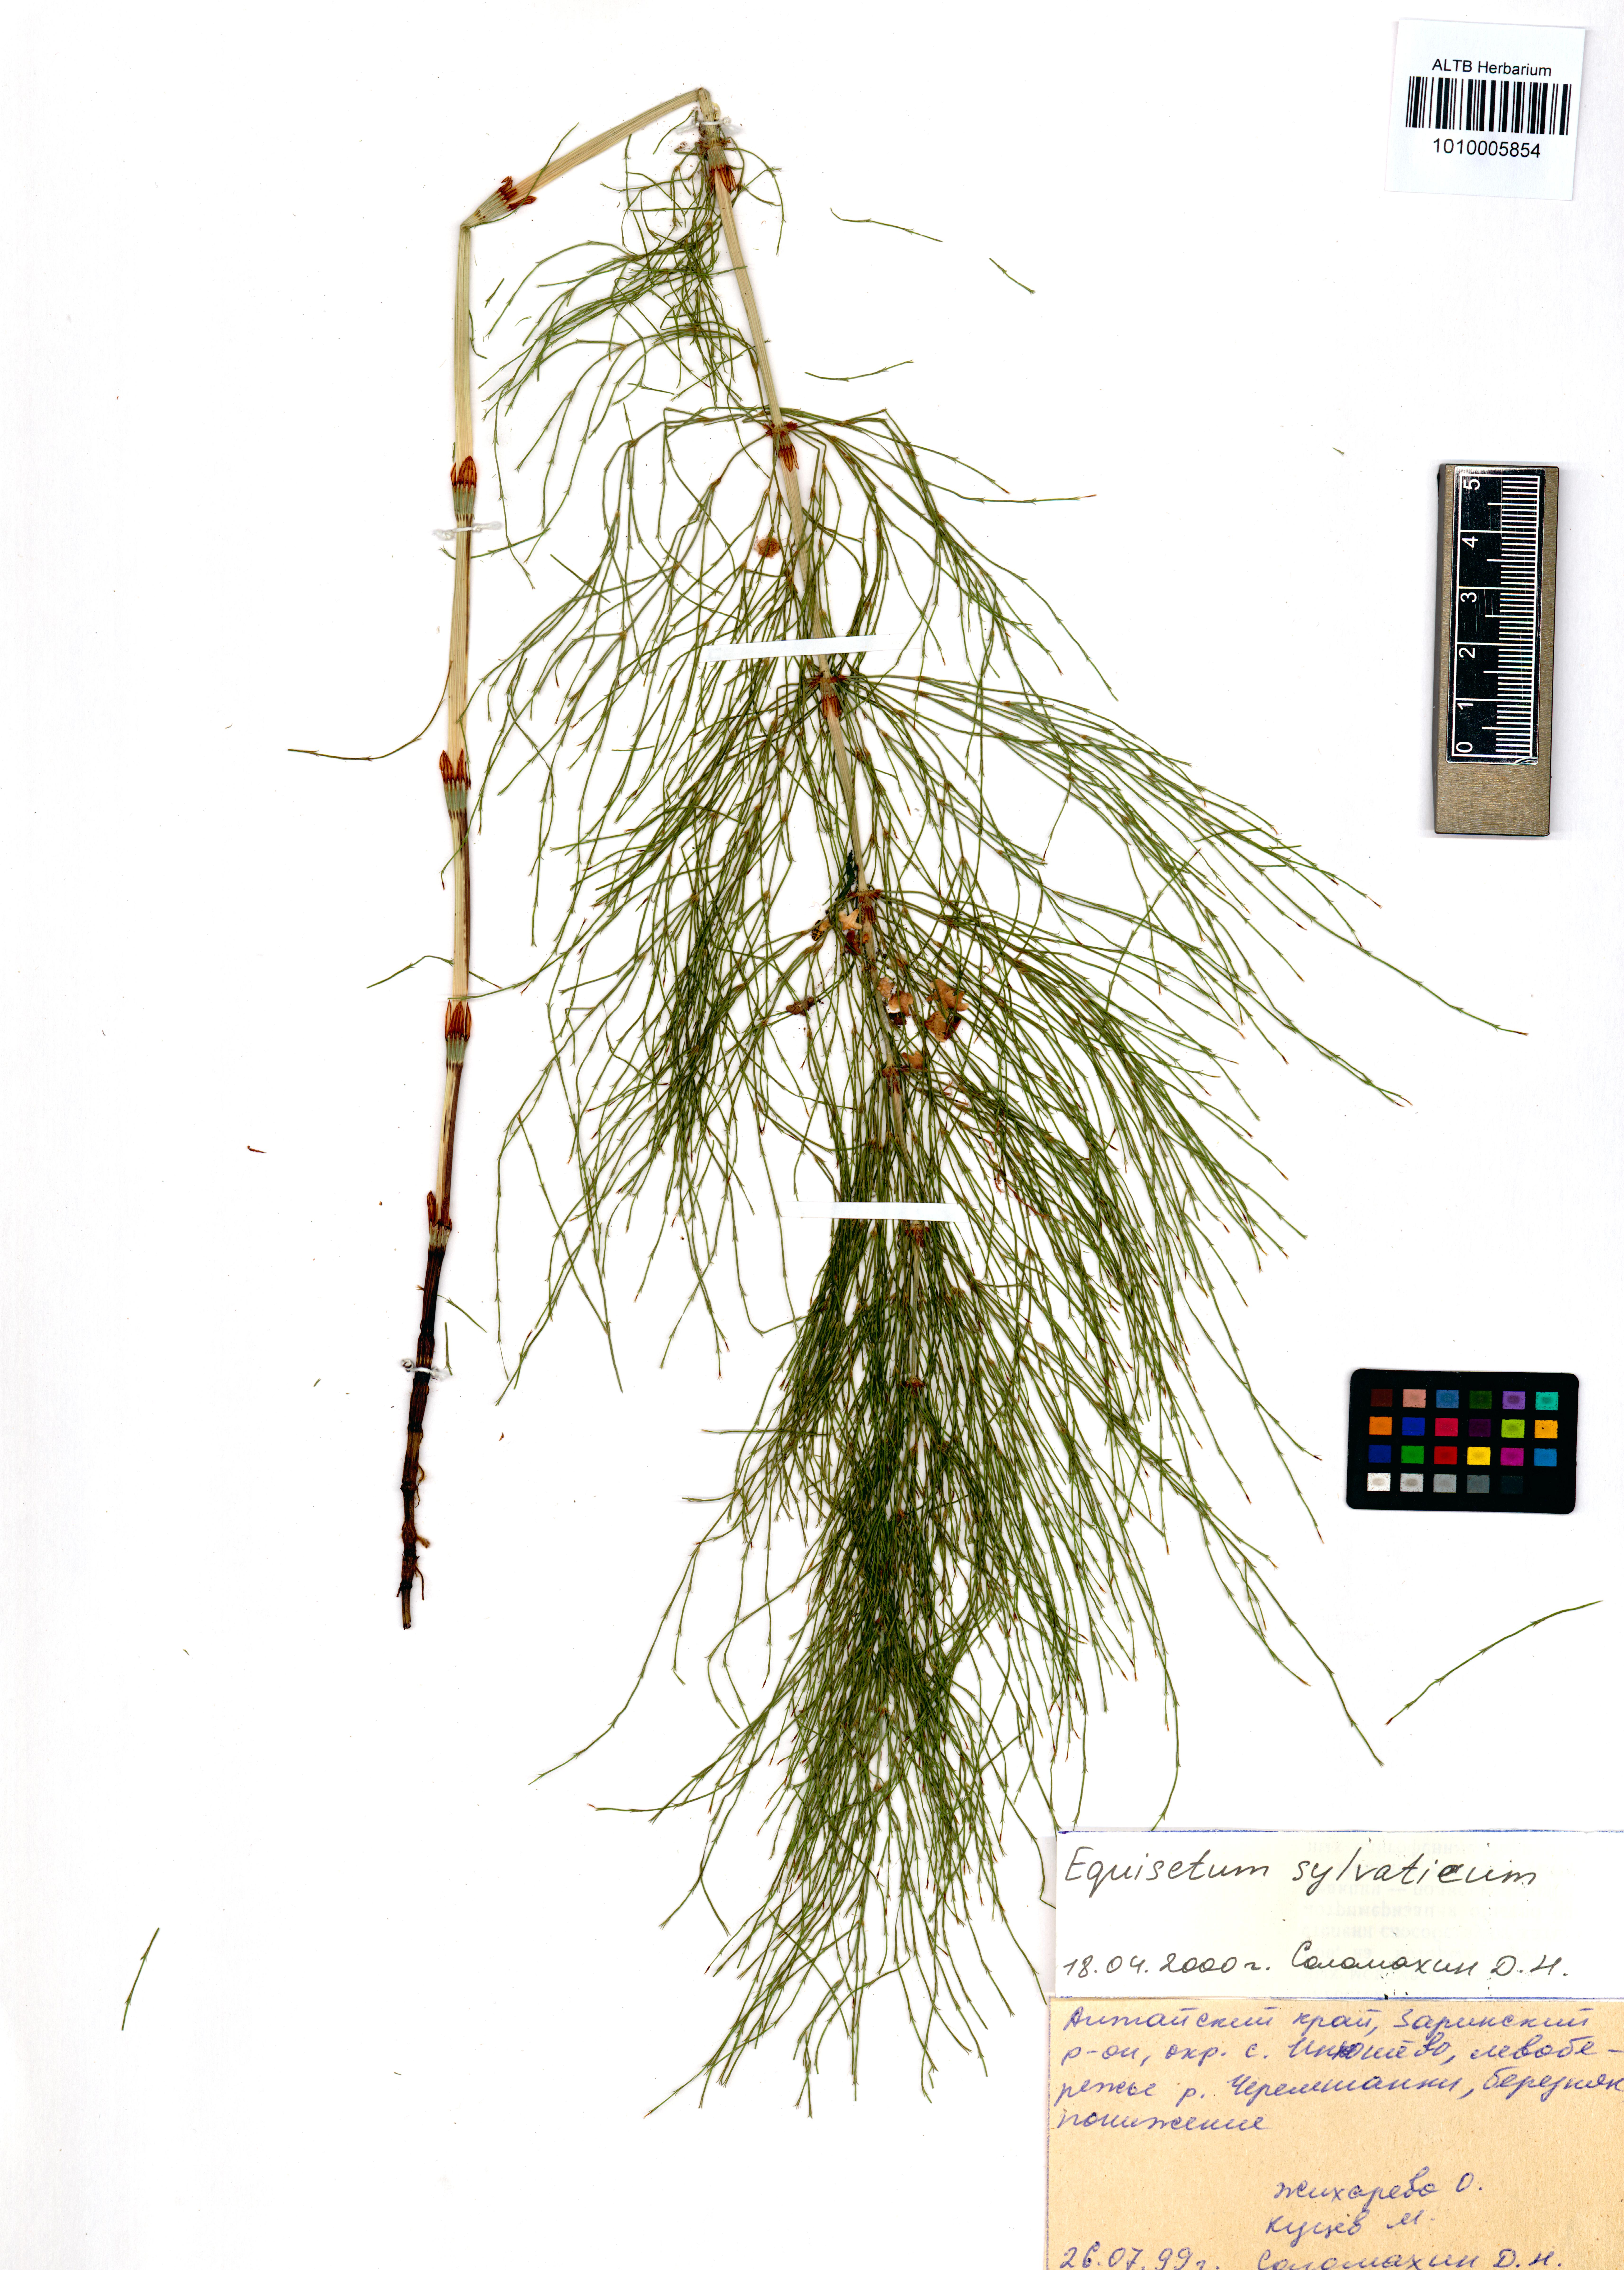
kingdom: Plantae
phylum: Tracheophyta
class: Polypodiopsida
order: Equisetales
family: Equisetaceae
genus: Equisetum
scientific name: Equisetum sylvaticum
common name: Wood horsetail
